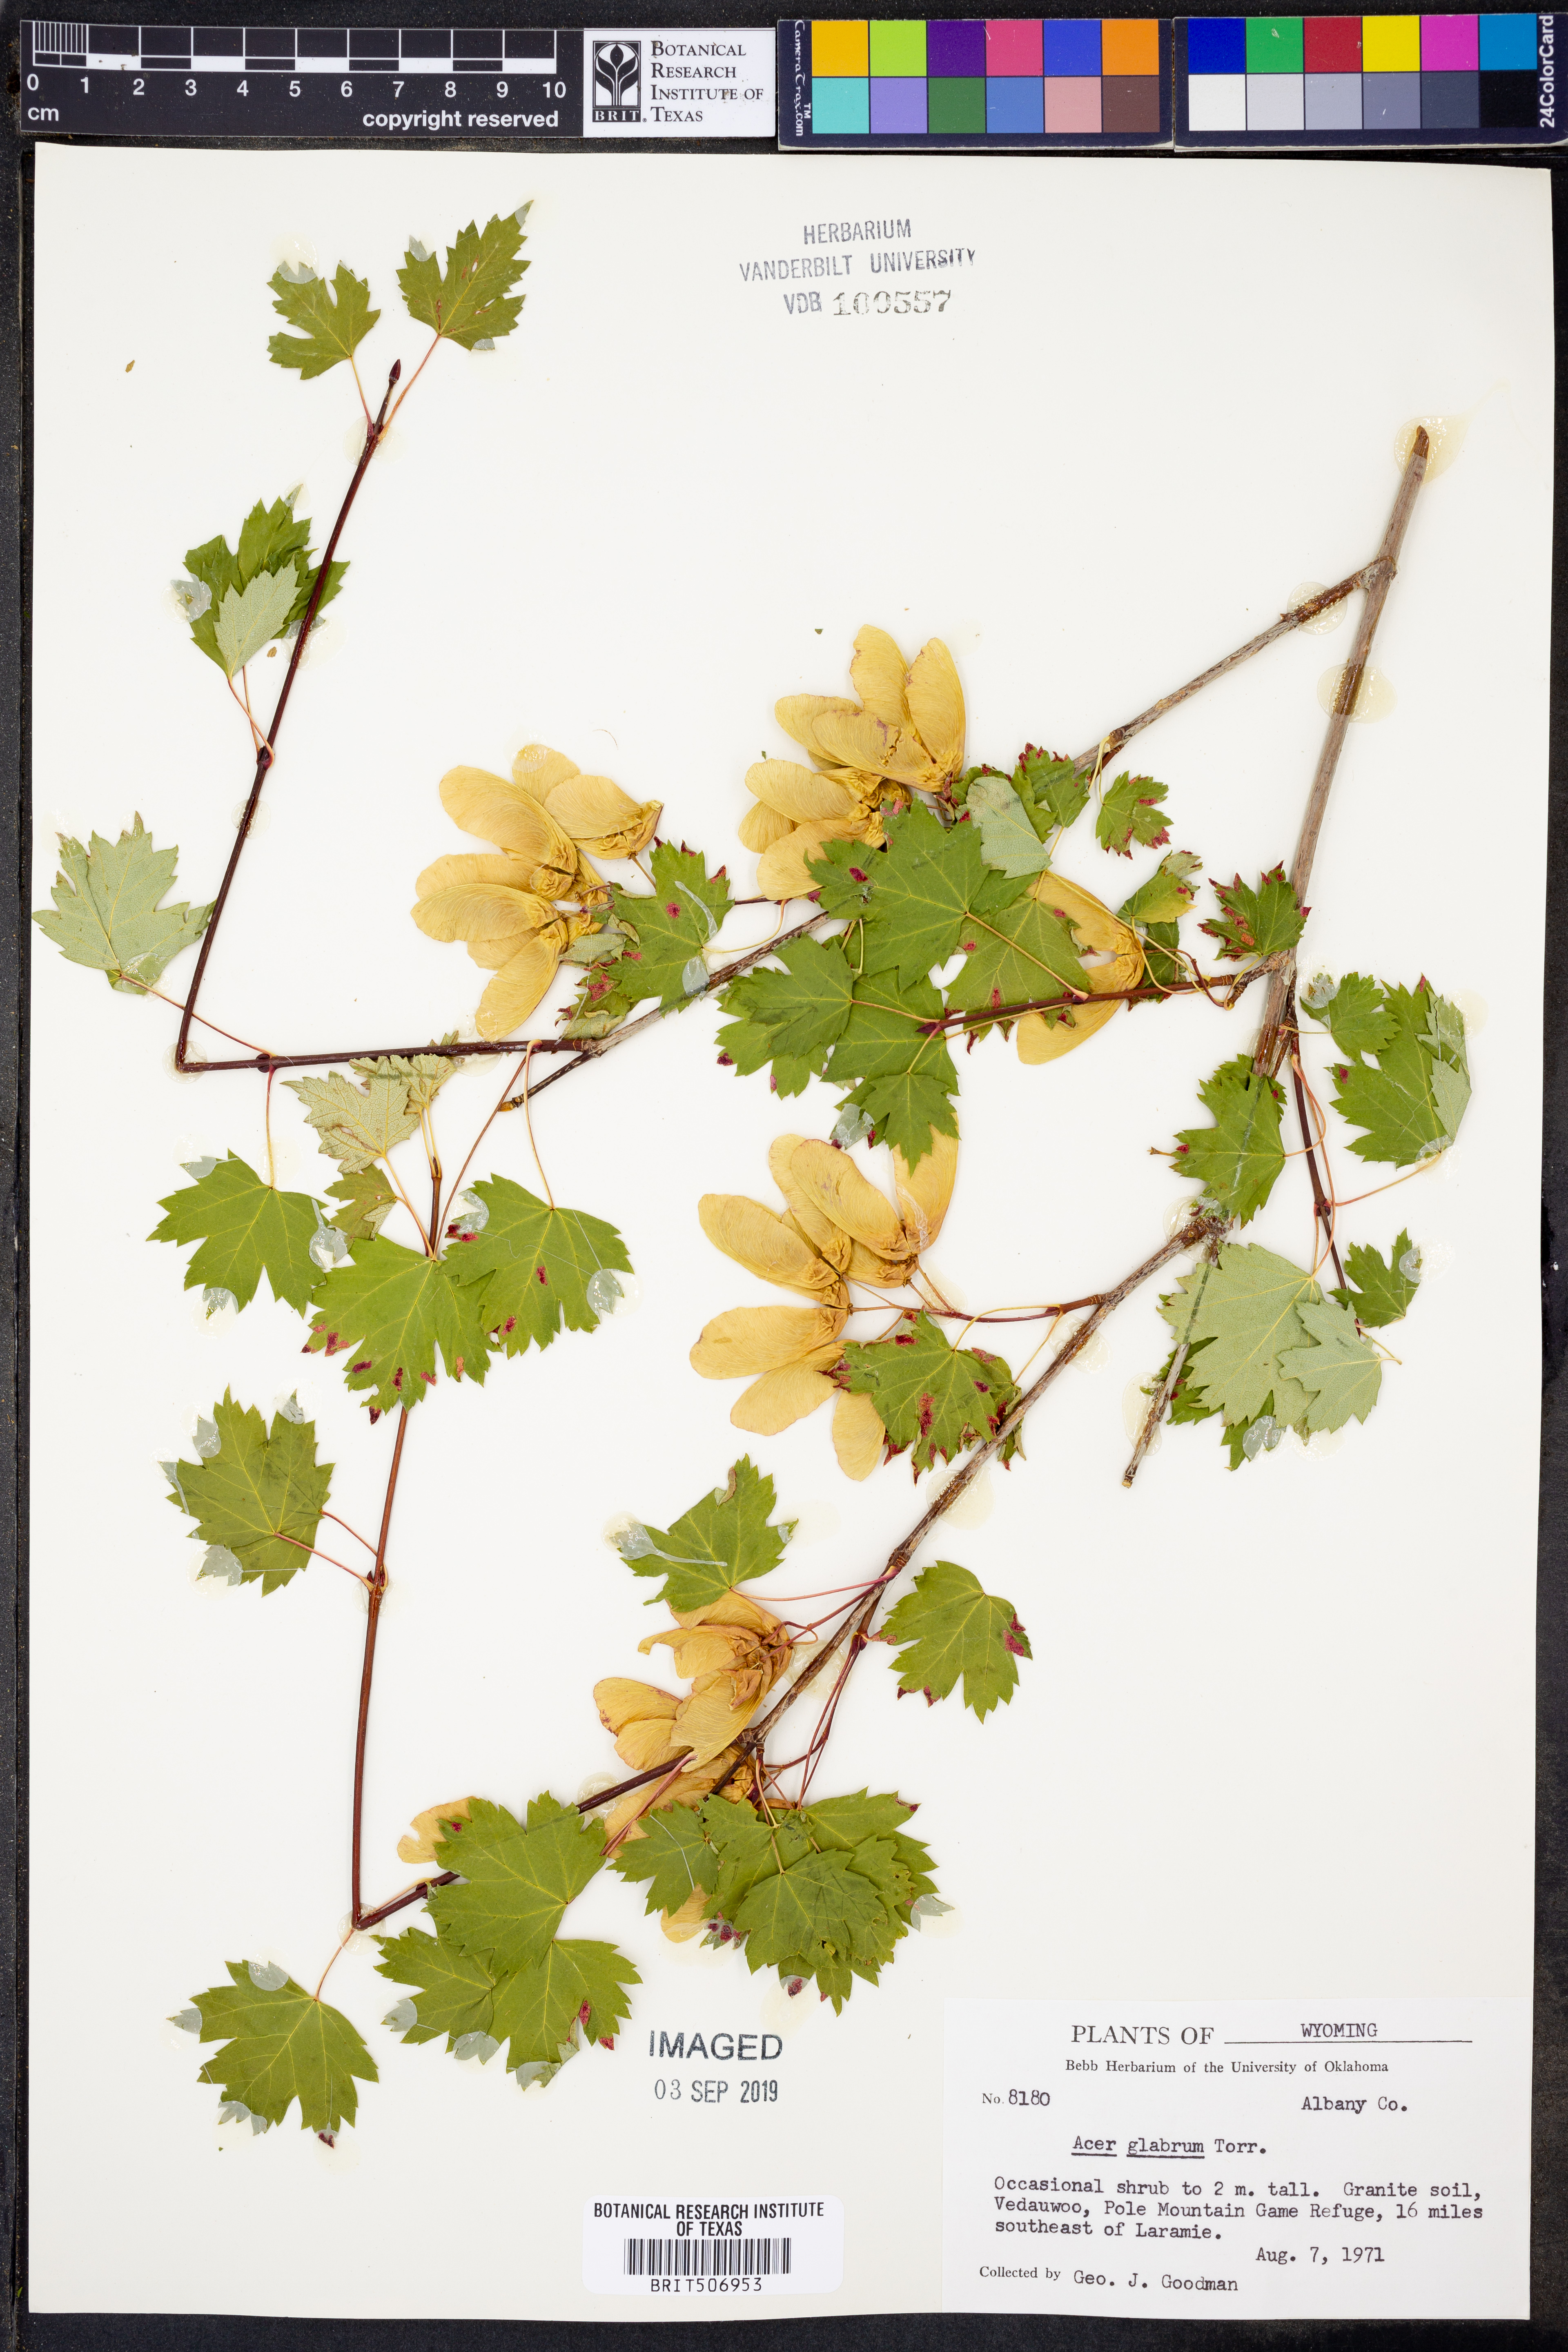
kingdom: Plantae
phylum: Tracheophyta
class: Magnoliopsida
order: Sapindales
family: Sapindaceae
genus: Acer
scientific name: Acer glabrum
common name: Rocky mountain maple
